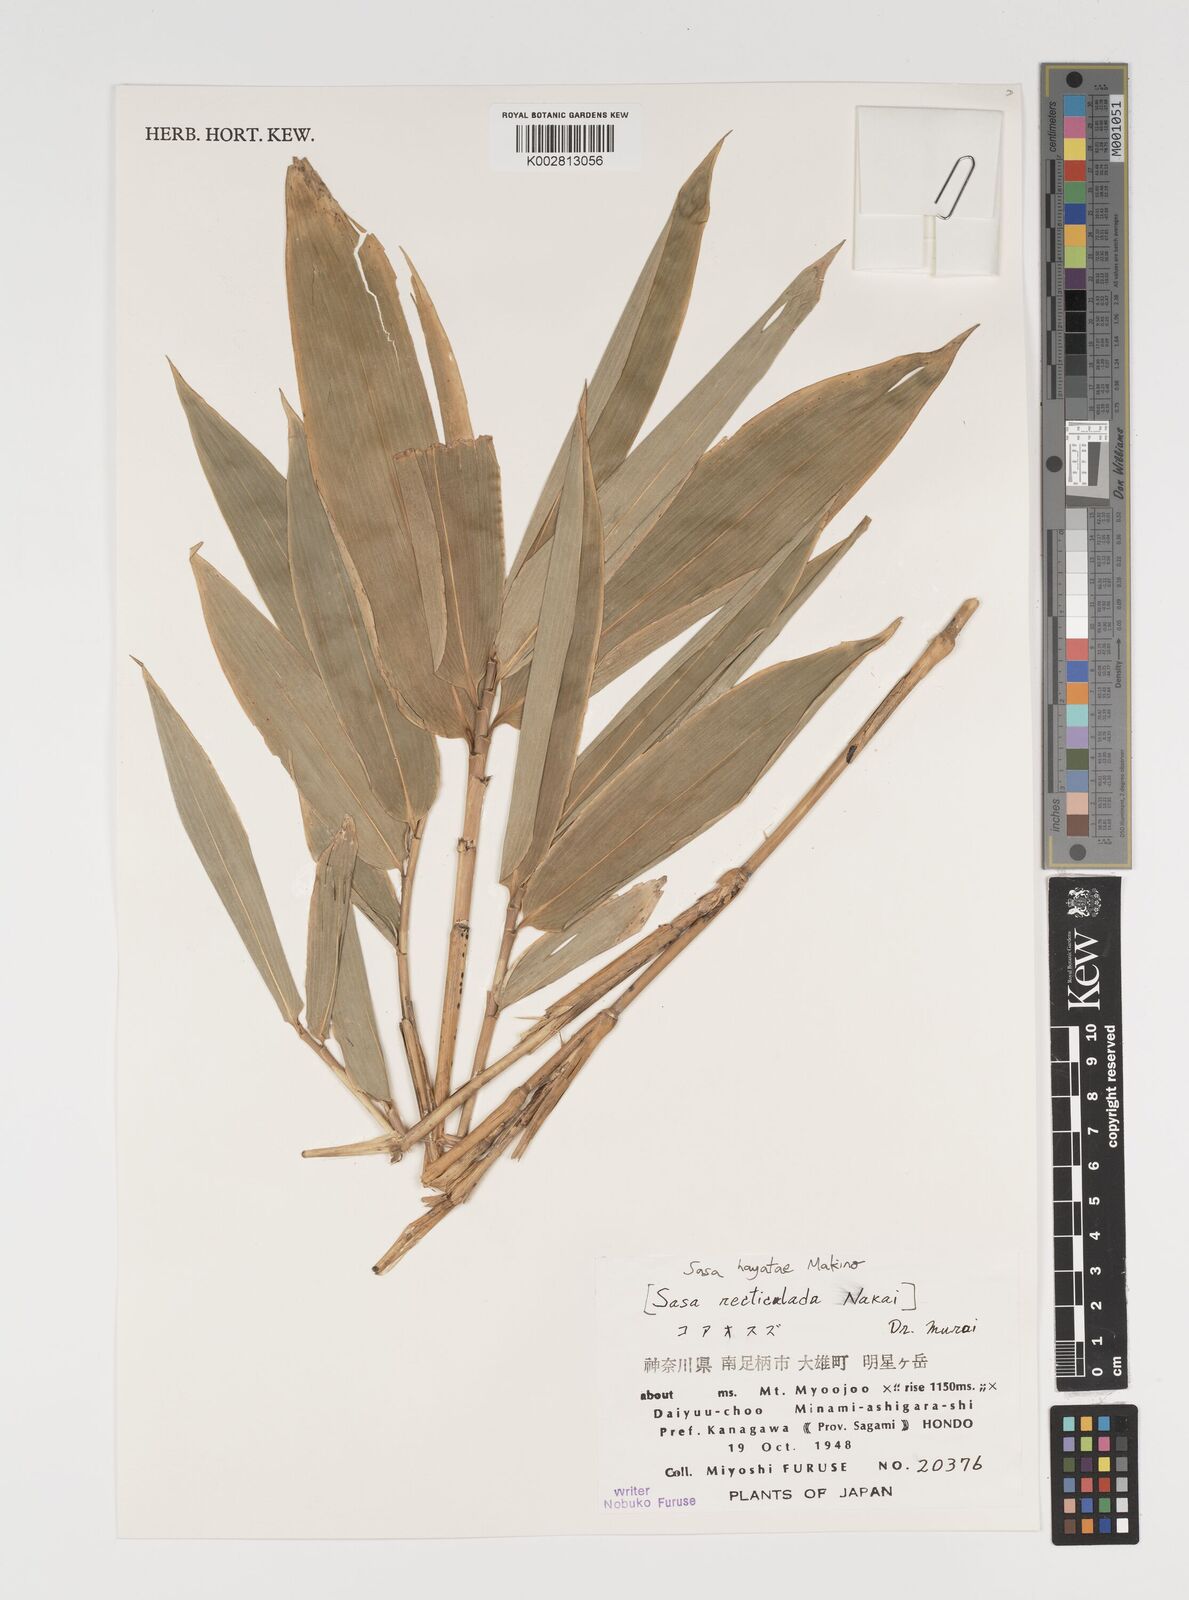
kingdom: Plantae
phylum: Tracheophyta
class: Liliopsida
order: Poales
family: Poaceae
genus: Sasa
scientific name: Sasa hayatae
